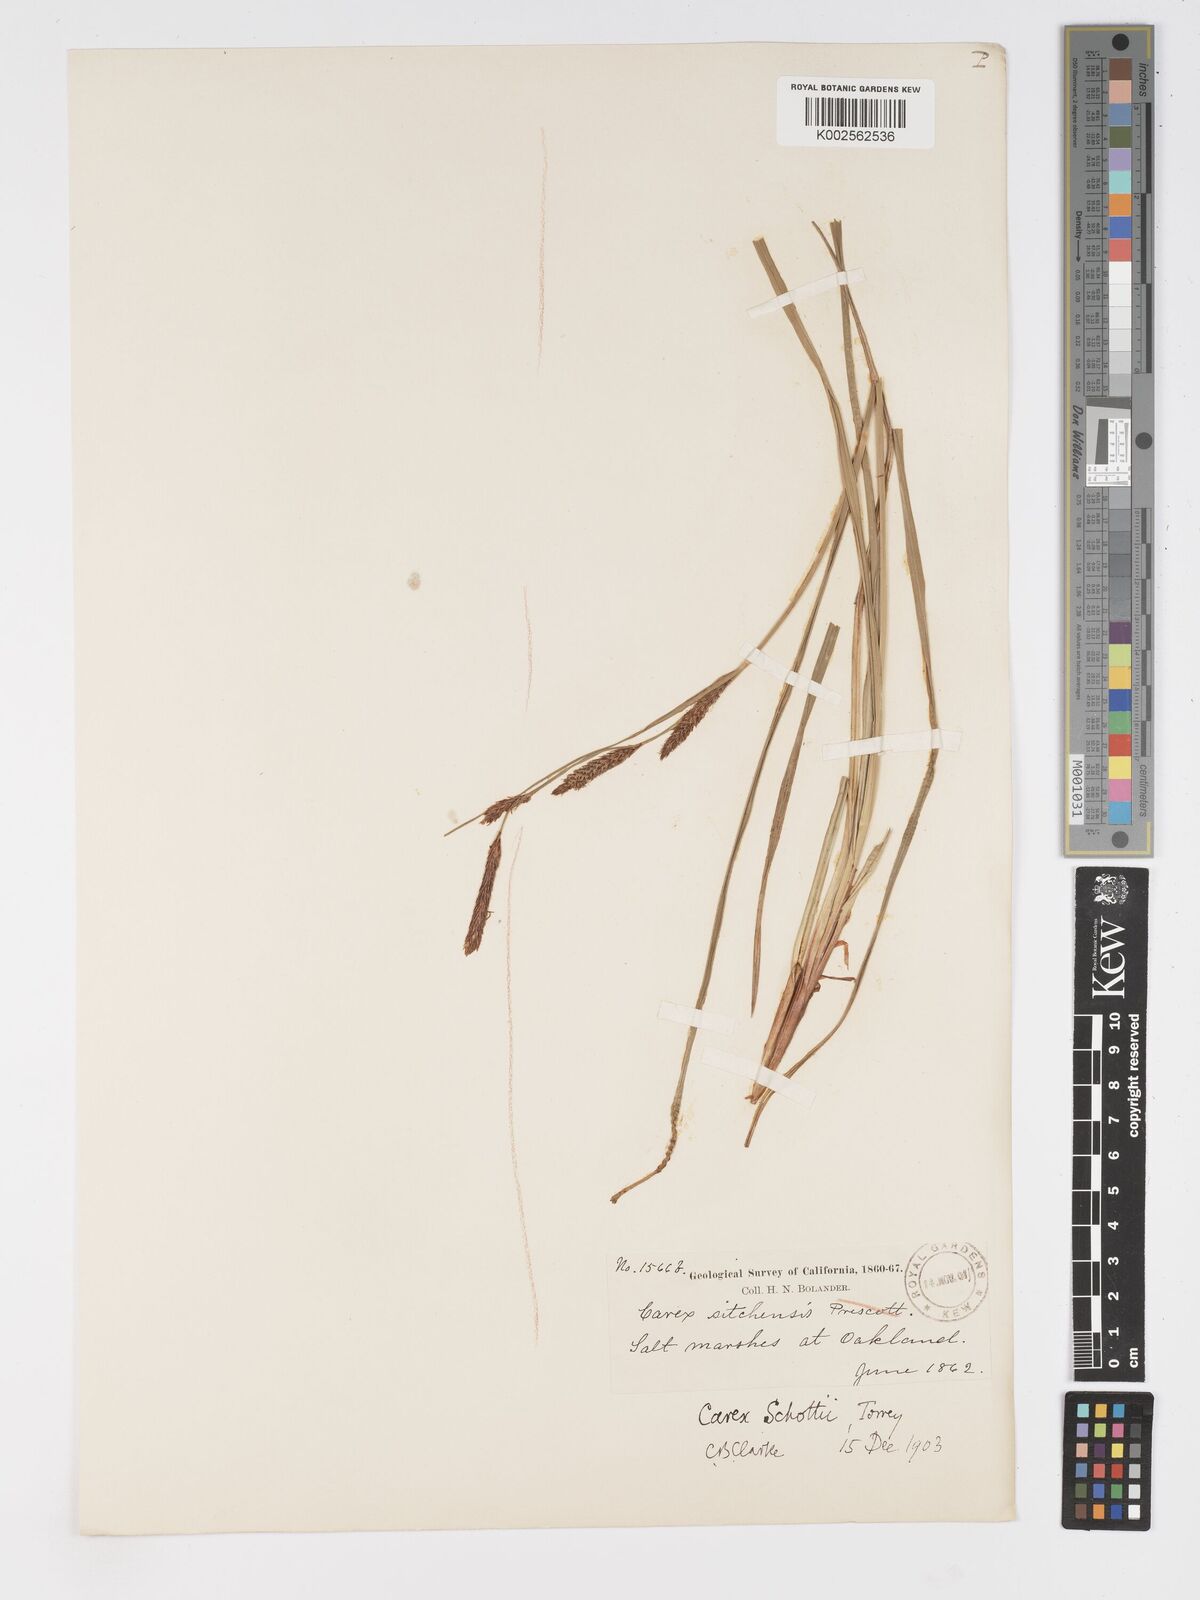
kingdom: Plantae
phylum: Tracheophyta
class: Liliopsida
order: Poales
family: Cyperaceae
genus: Carex
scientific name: Carex schottii
